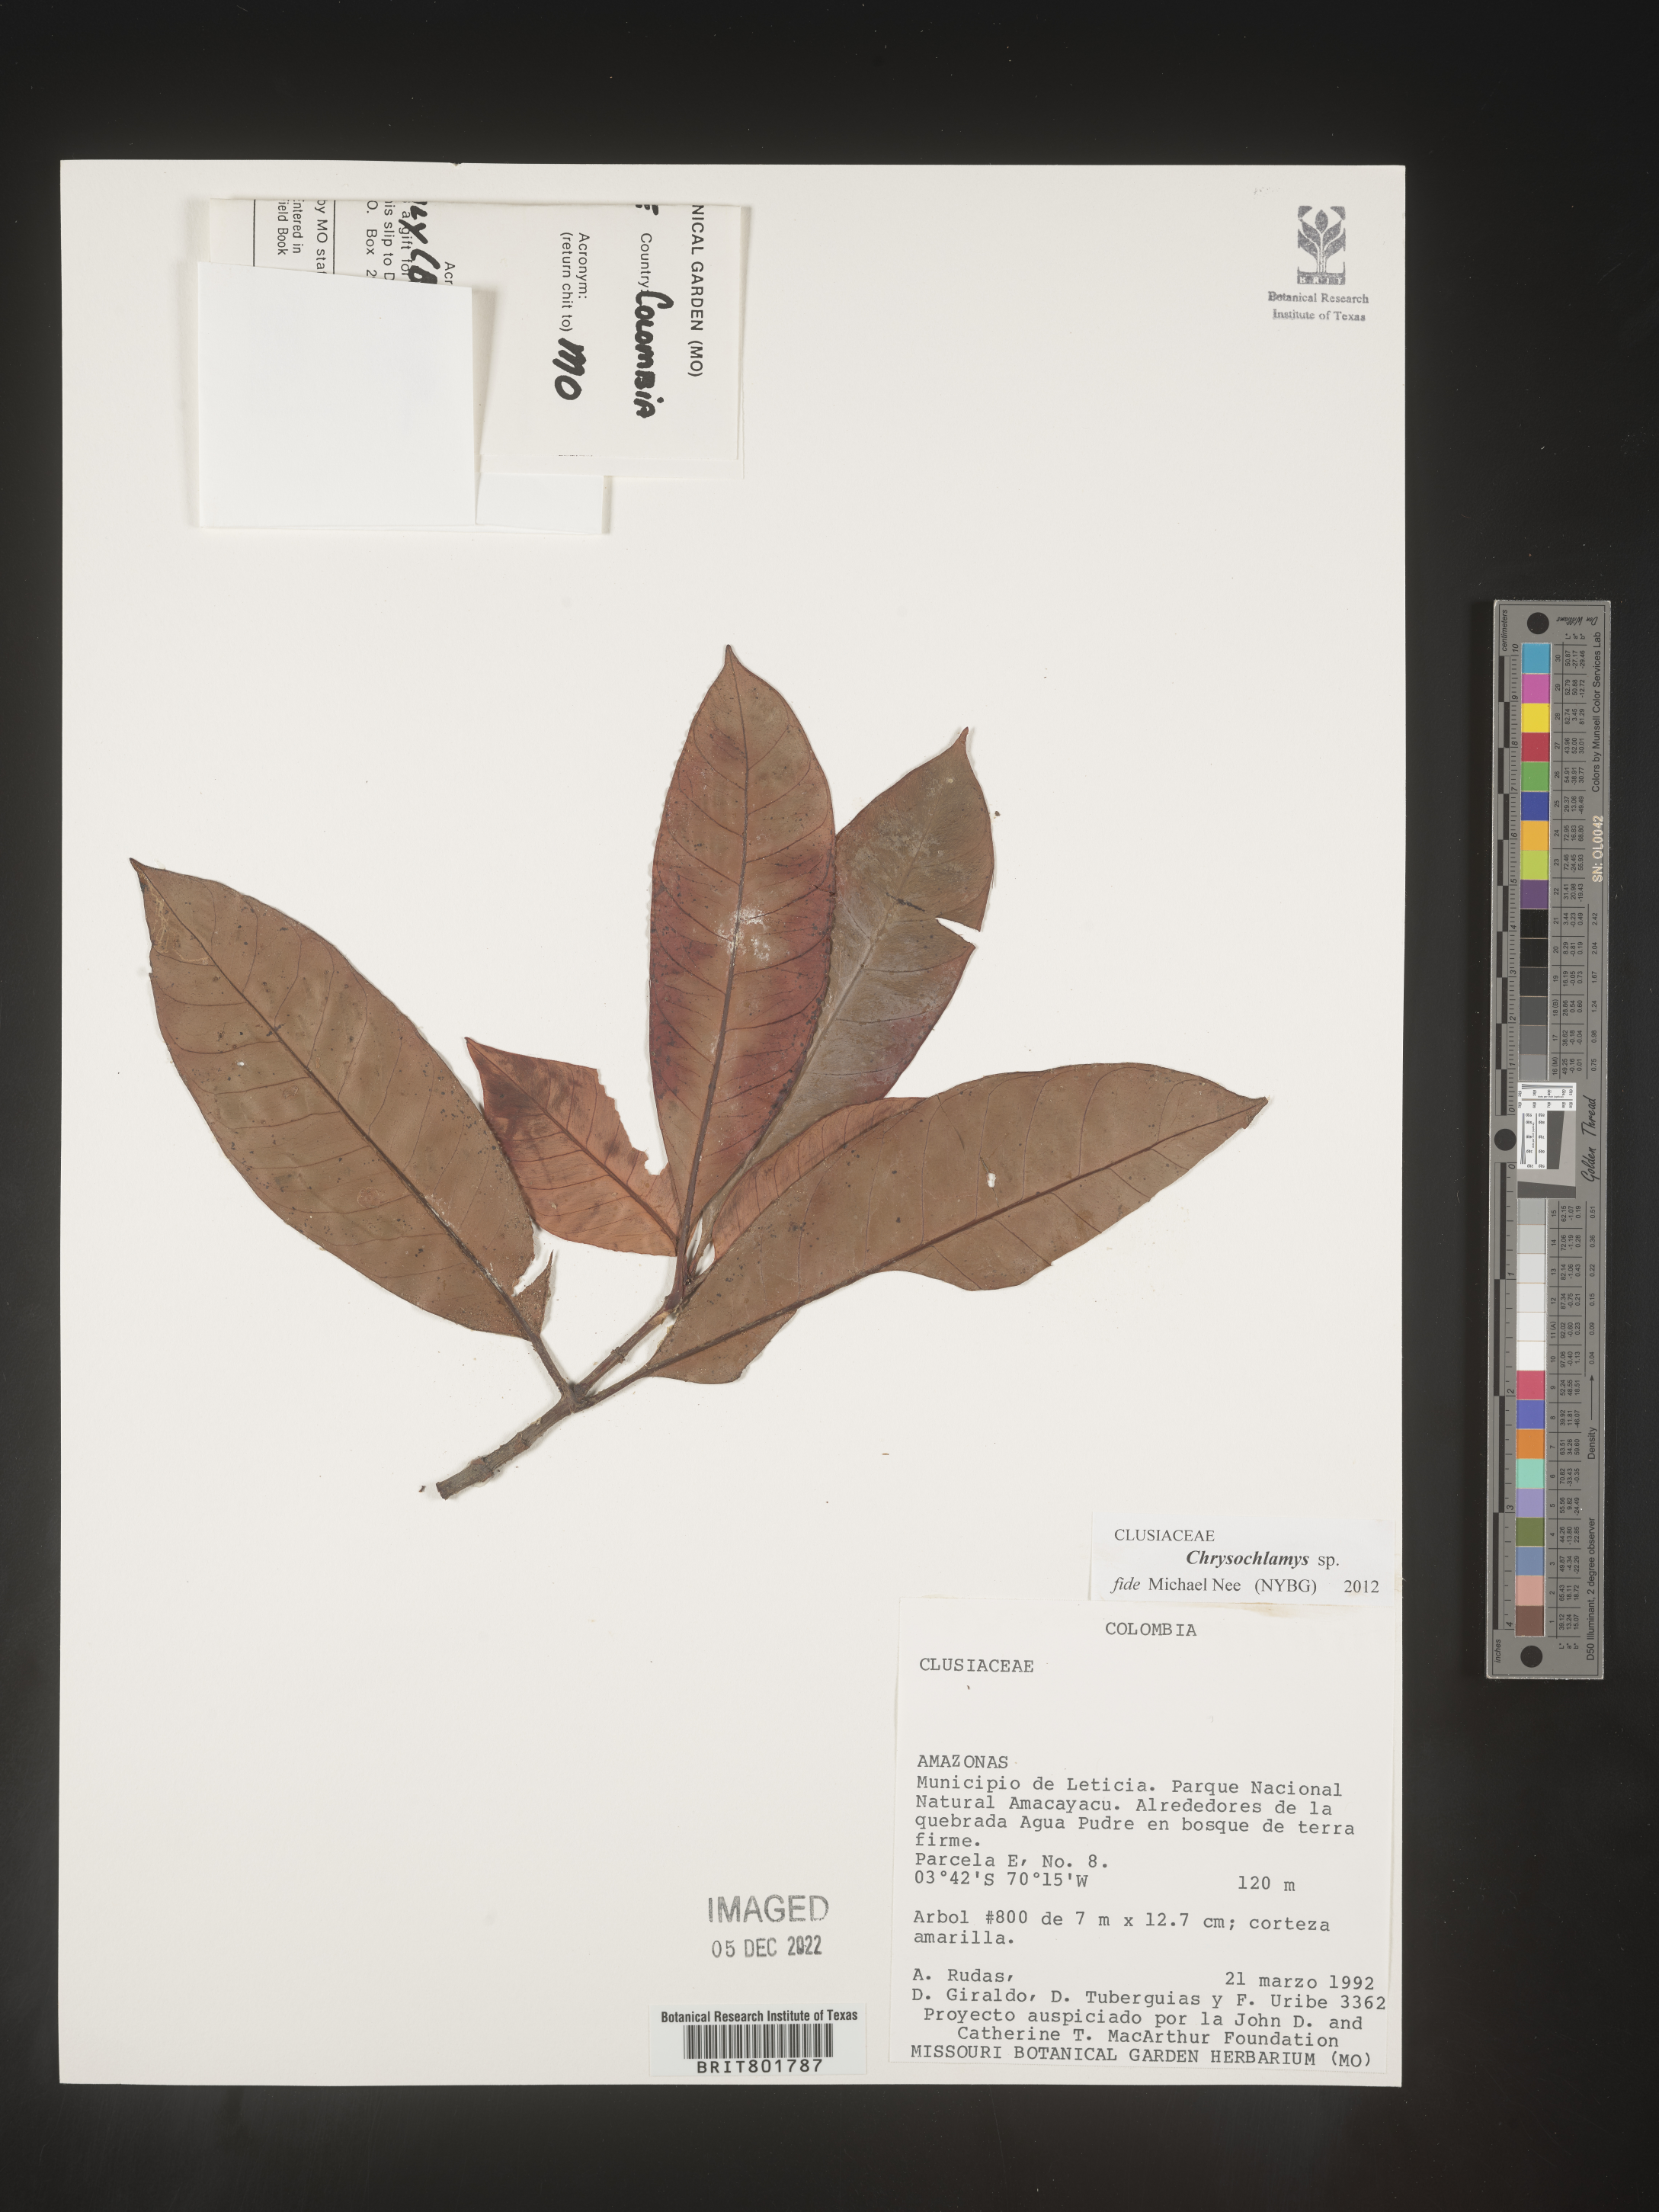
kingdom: Plantae
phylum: Tracheophyta
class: Magnoliopsida
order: Malpighiales
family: Clusiaceae
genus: Chrysochlamys
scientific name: Chrysochlamys
